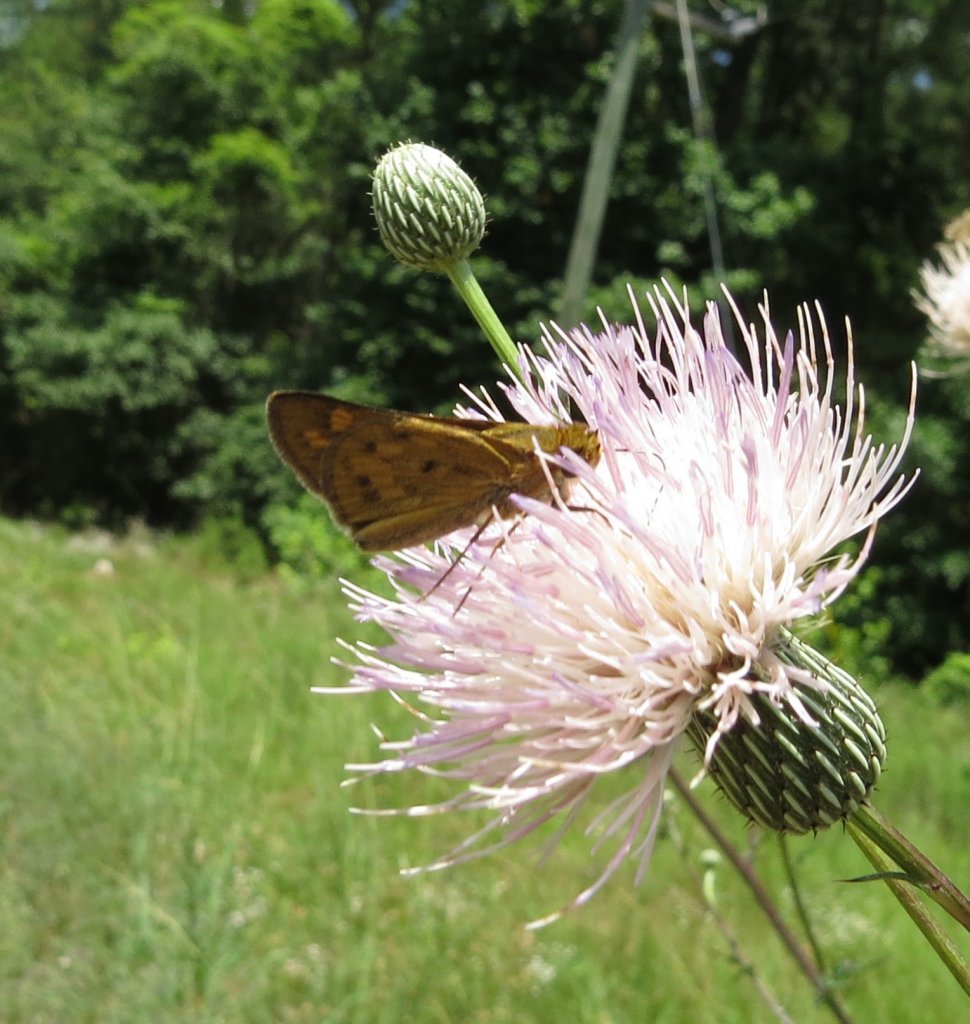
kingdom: Animalia
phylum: Arthropoda
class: Insecta
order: Lepidoptera
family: Hesperiidae
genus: Hylephila
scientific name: Hylephila phyleus
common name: Fiery Skipper
